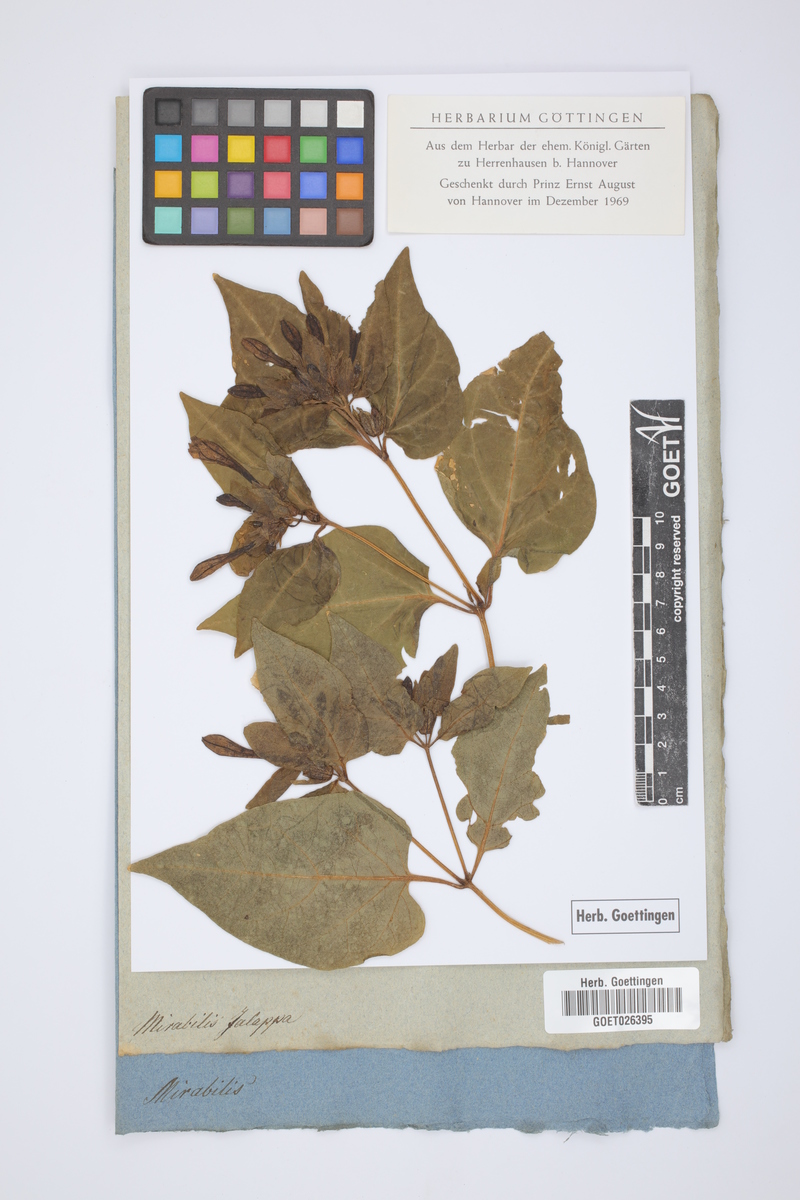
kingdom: Plantae
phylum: Tracheophyta
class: Magnoliopsida
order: Caryophyllales
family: Nyctaginaceae
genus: Mirabilis
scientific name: Mirabilis jalapa
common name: Marvel-of-peru
